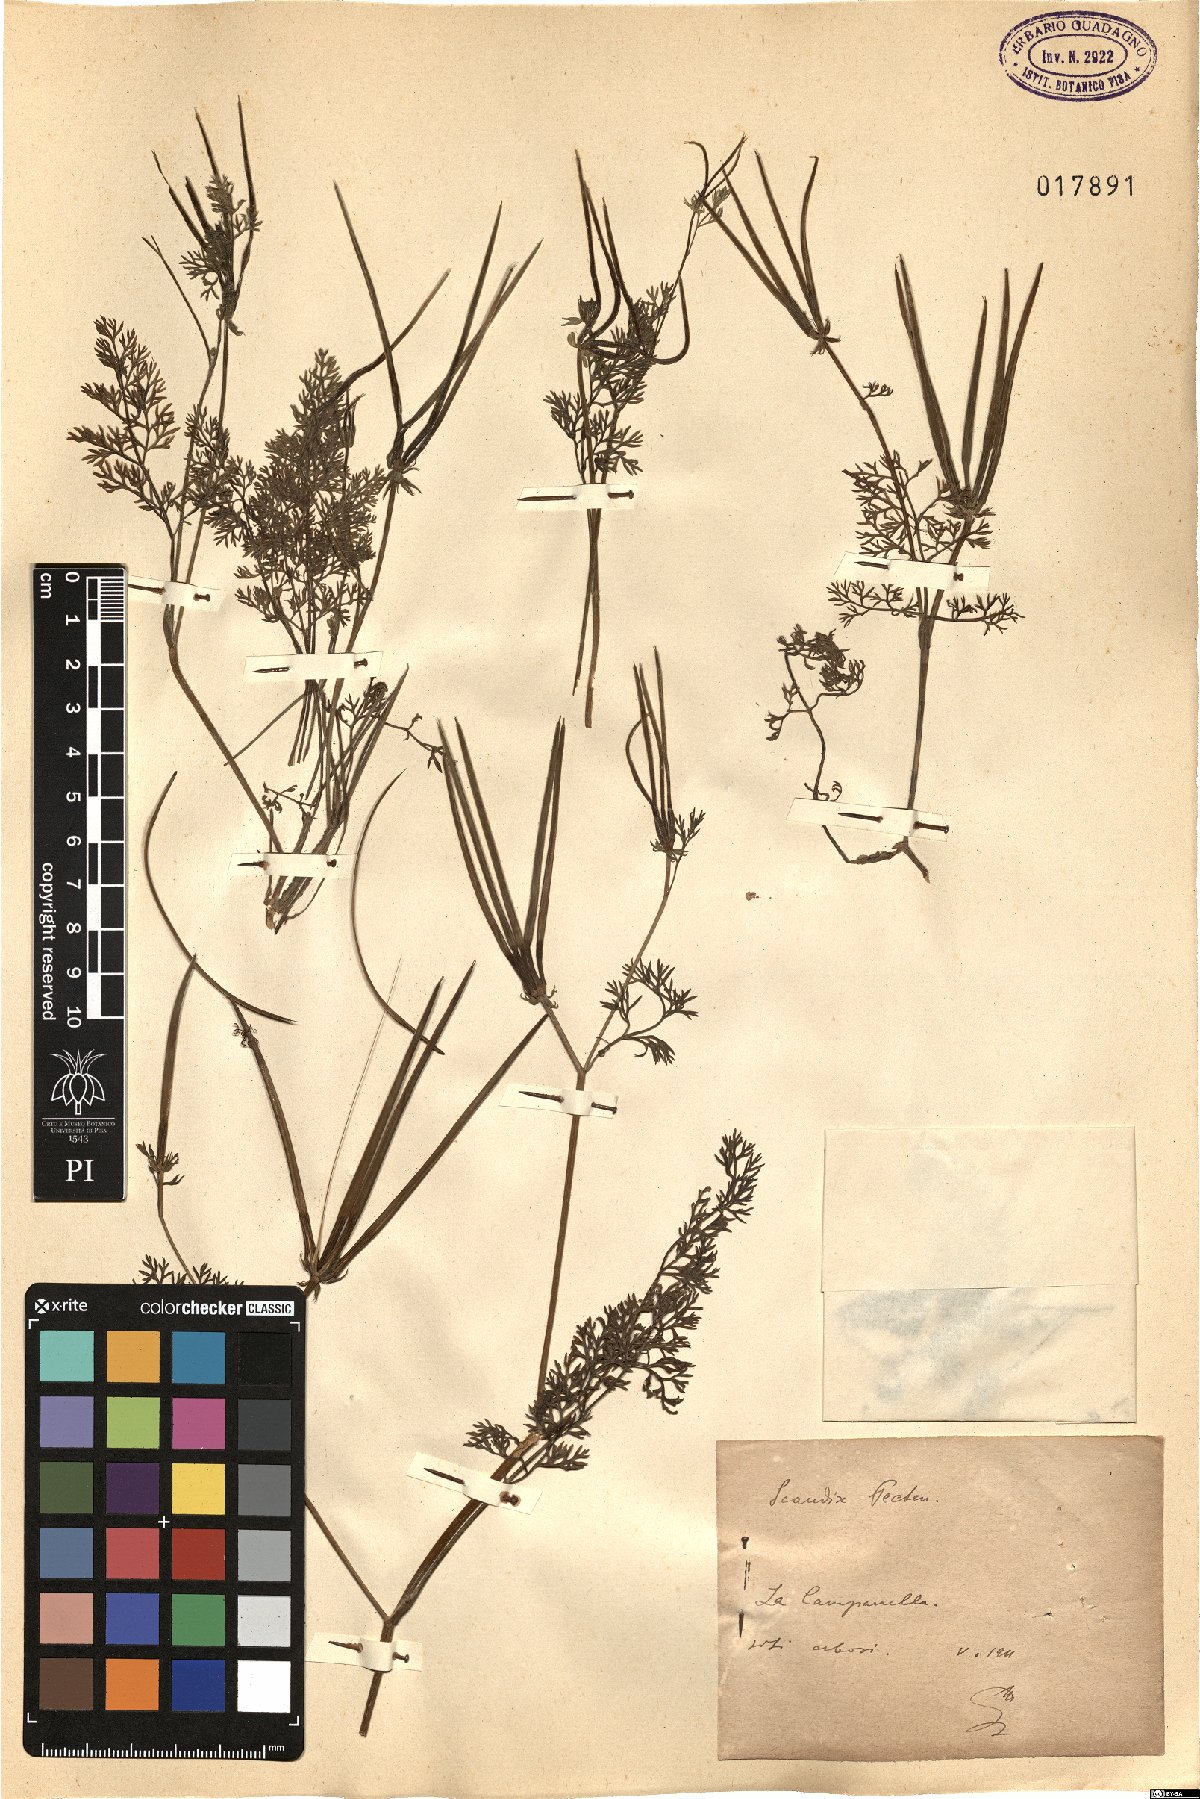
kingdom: Plantae
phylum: Tracheophyta
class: Magnoliopsida
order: Apiales
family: Apiaceae
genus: Scandix
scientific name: Scandix pecten-veneris
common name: Shepherd's-needle
